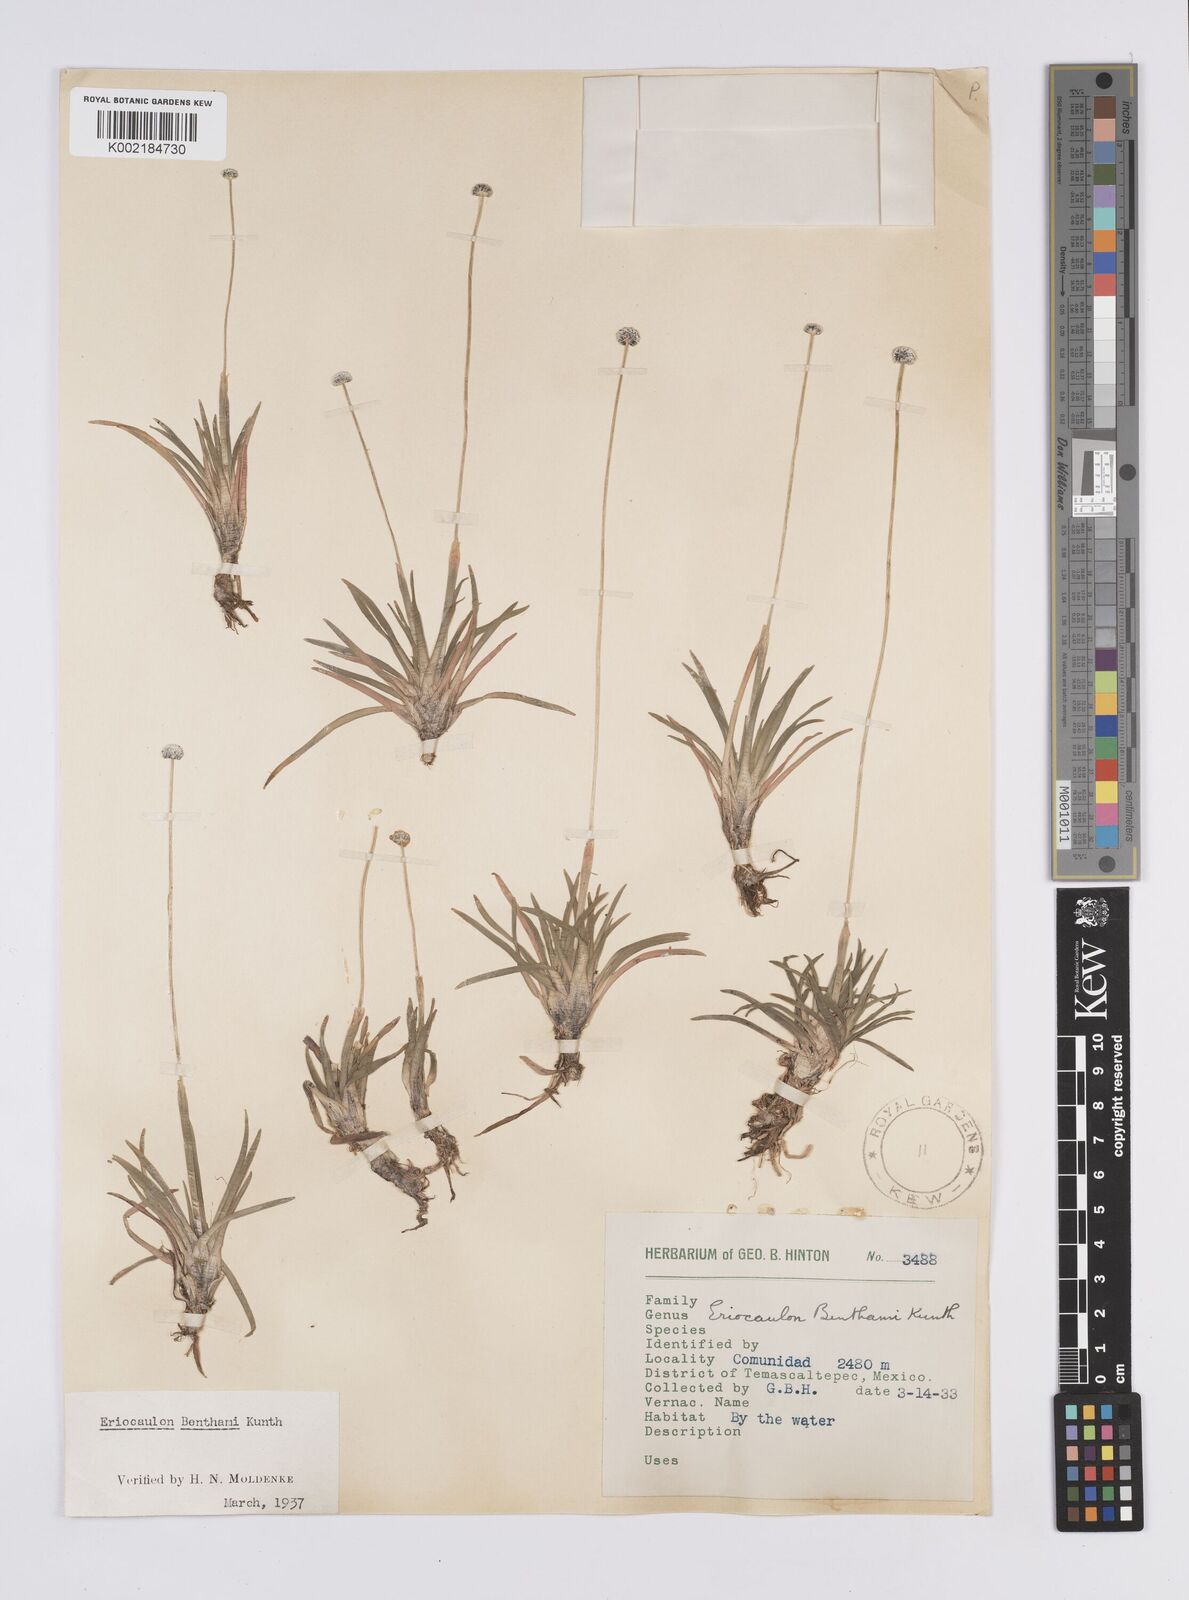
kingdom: Plantae
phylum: Tracheophyta
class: Liliopsida
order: Poales
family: Eriocaulaceae
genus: Eriocaulon
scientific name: Eriocaulon benthamii
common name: Bentham's pipewort
